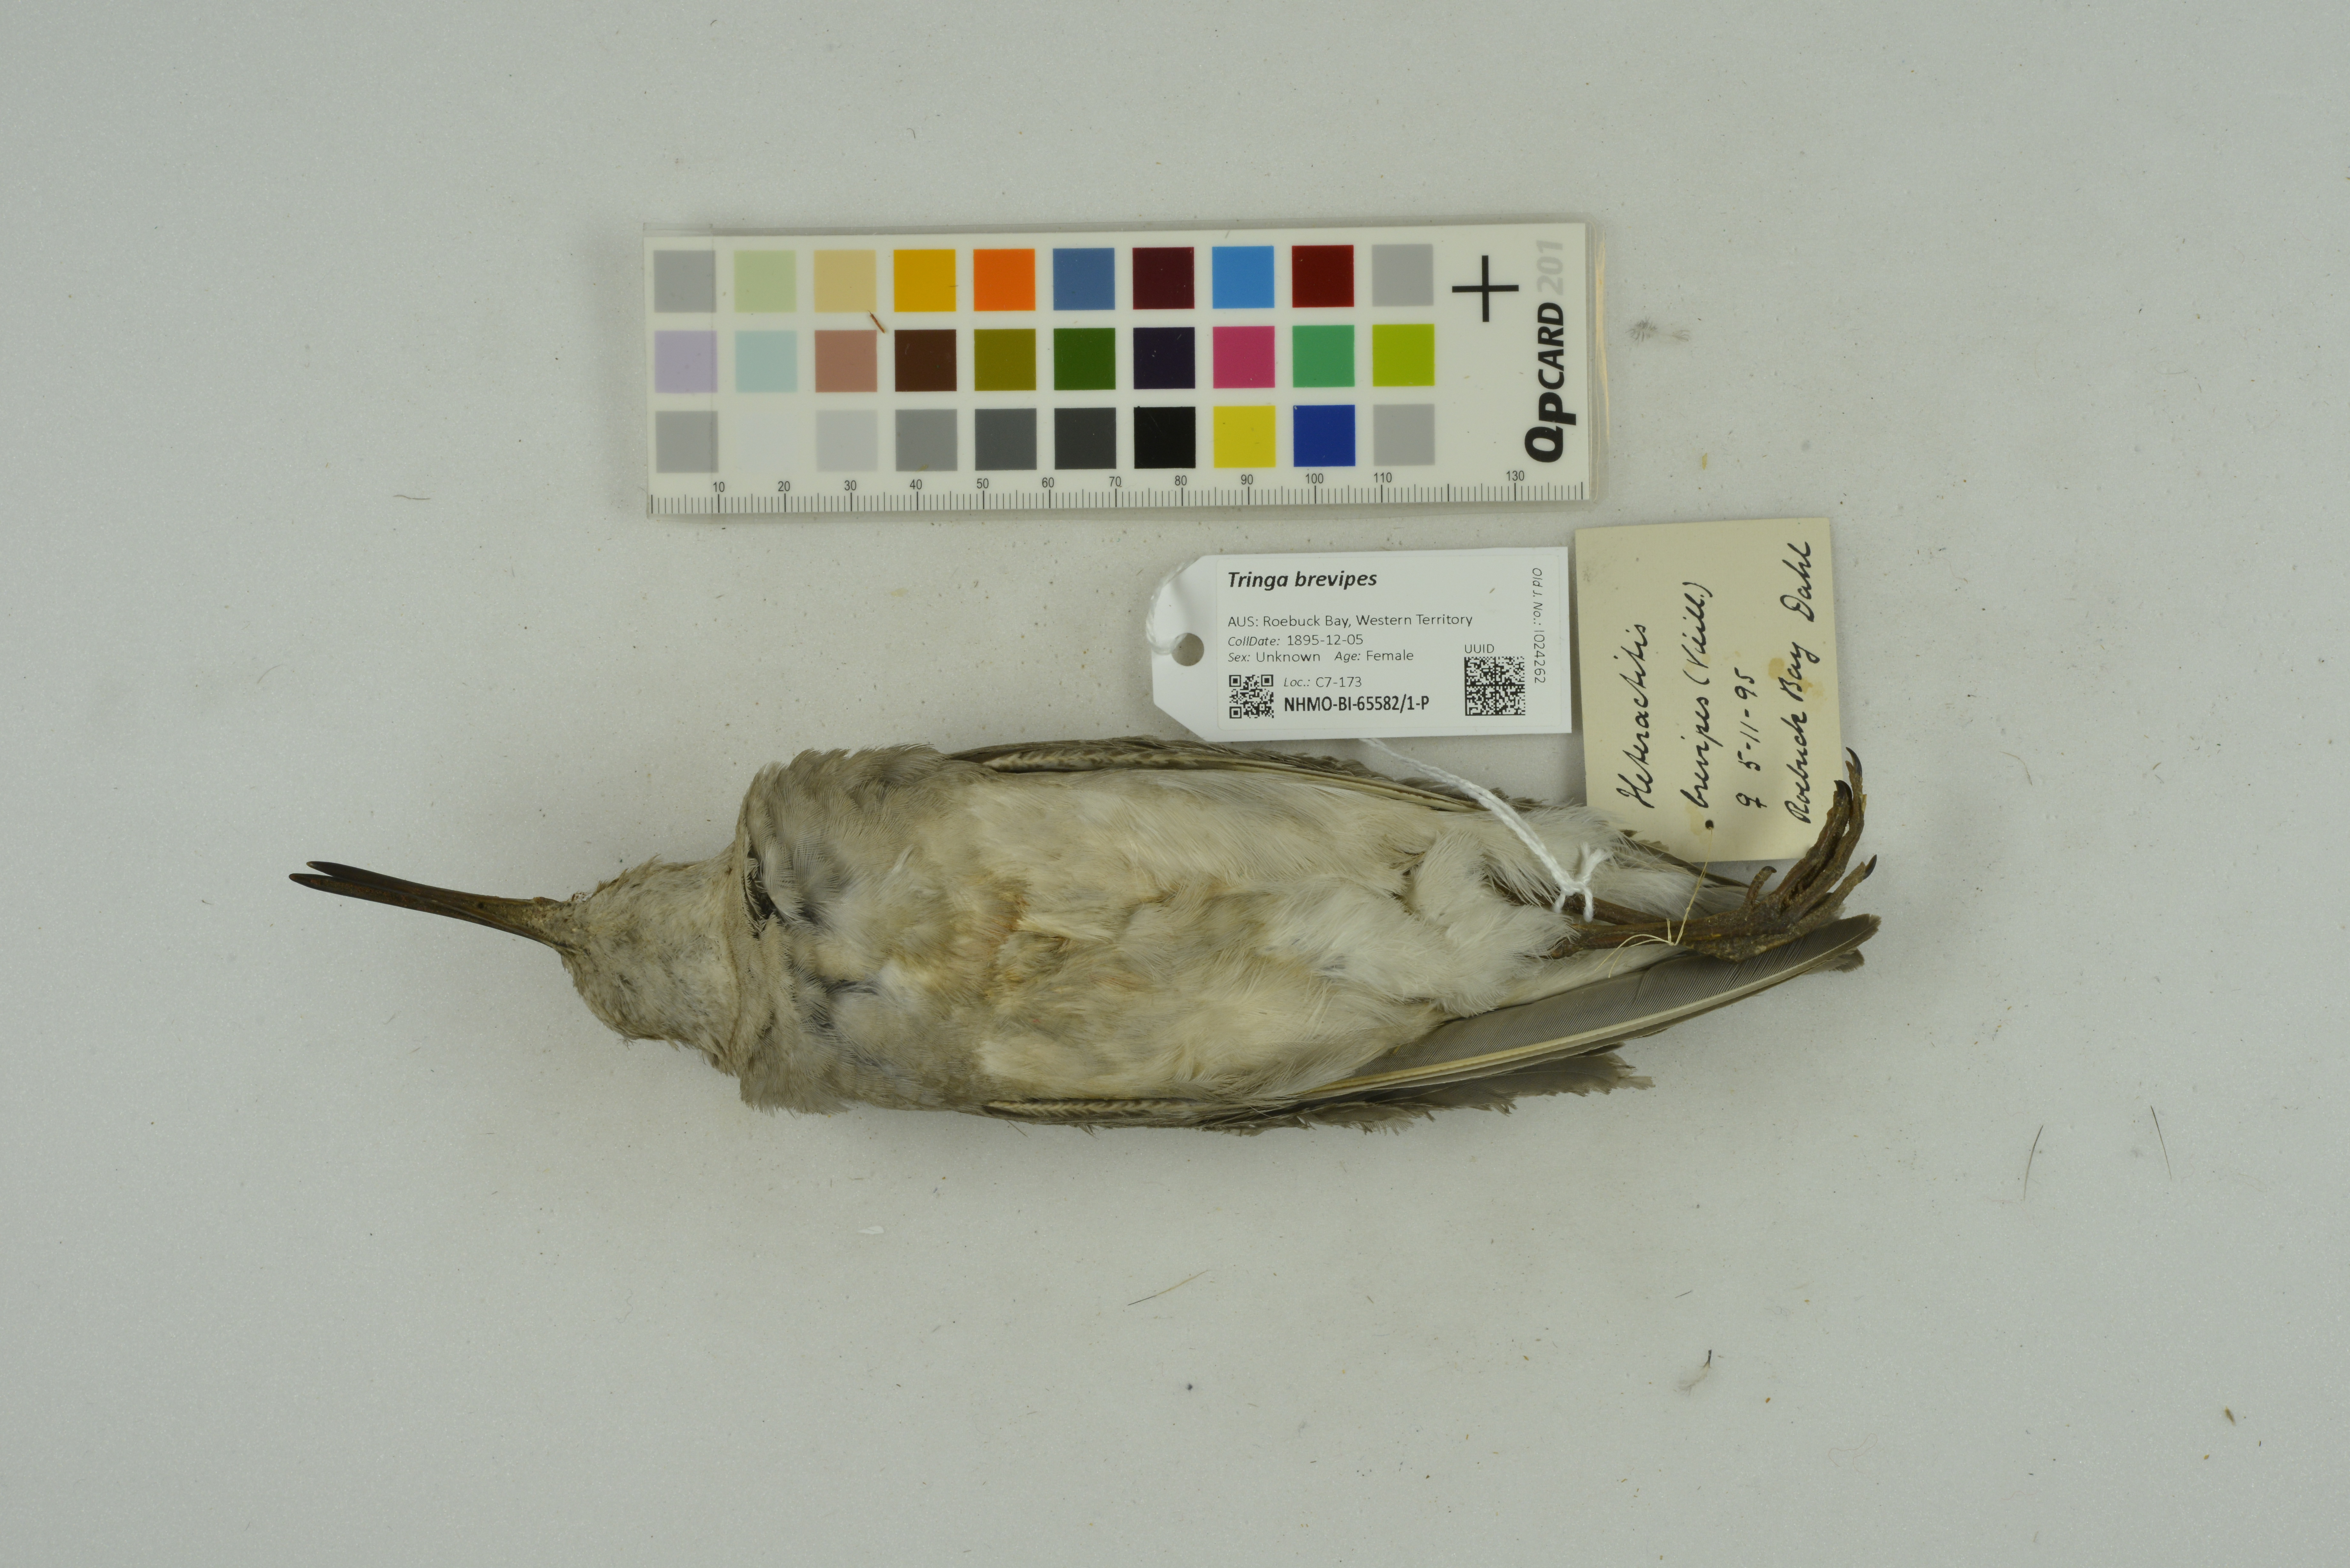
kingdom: Animalia
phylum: Chordata
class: Aves
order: Charadriiformes
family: Scolopacidae
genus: Tringa
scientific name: Tringa brevipes
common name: Grey-tailed tattler
